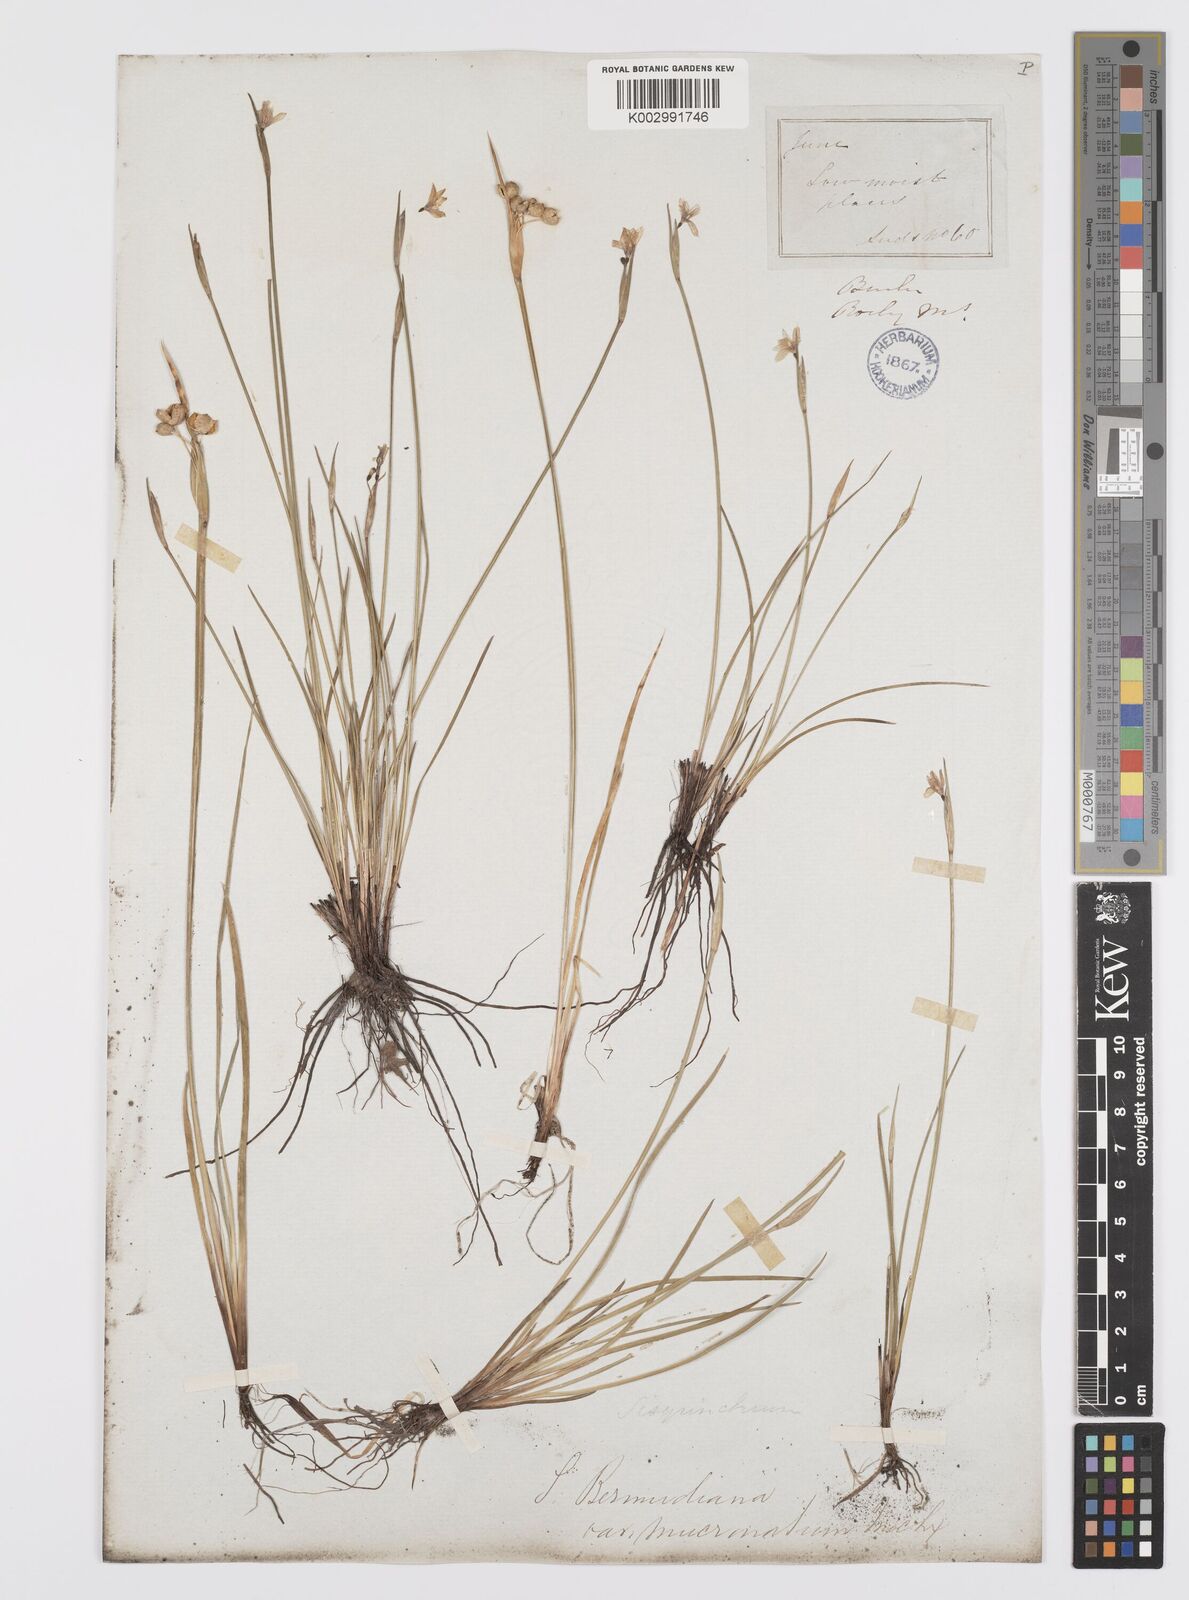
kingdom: Plantae
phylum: Tracheophyta
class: Liliopsida
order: Asparagales
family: Iridaceae
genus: Sisyrinchium
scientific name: Sisyrinchium bermudiana
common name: Blue-eyed-grass
